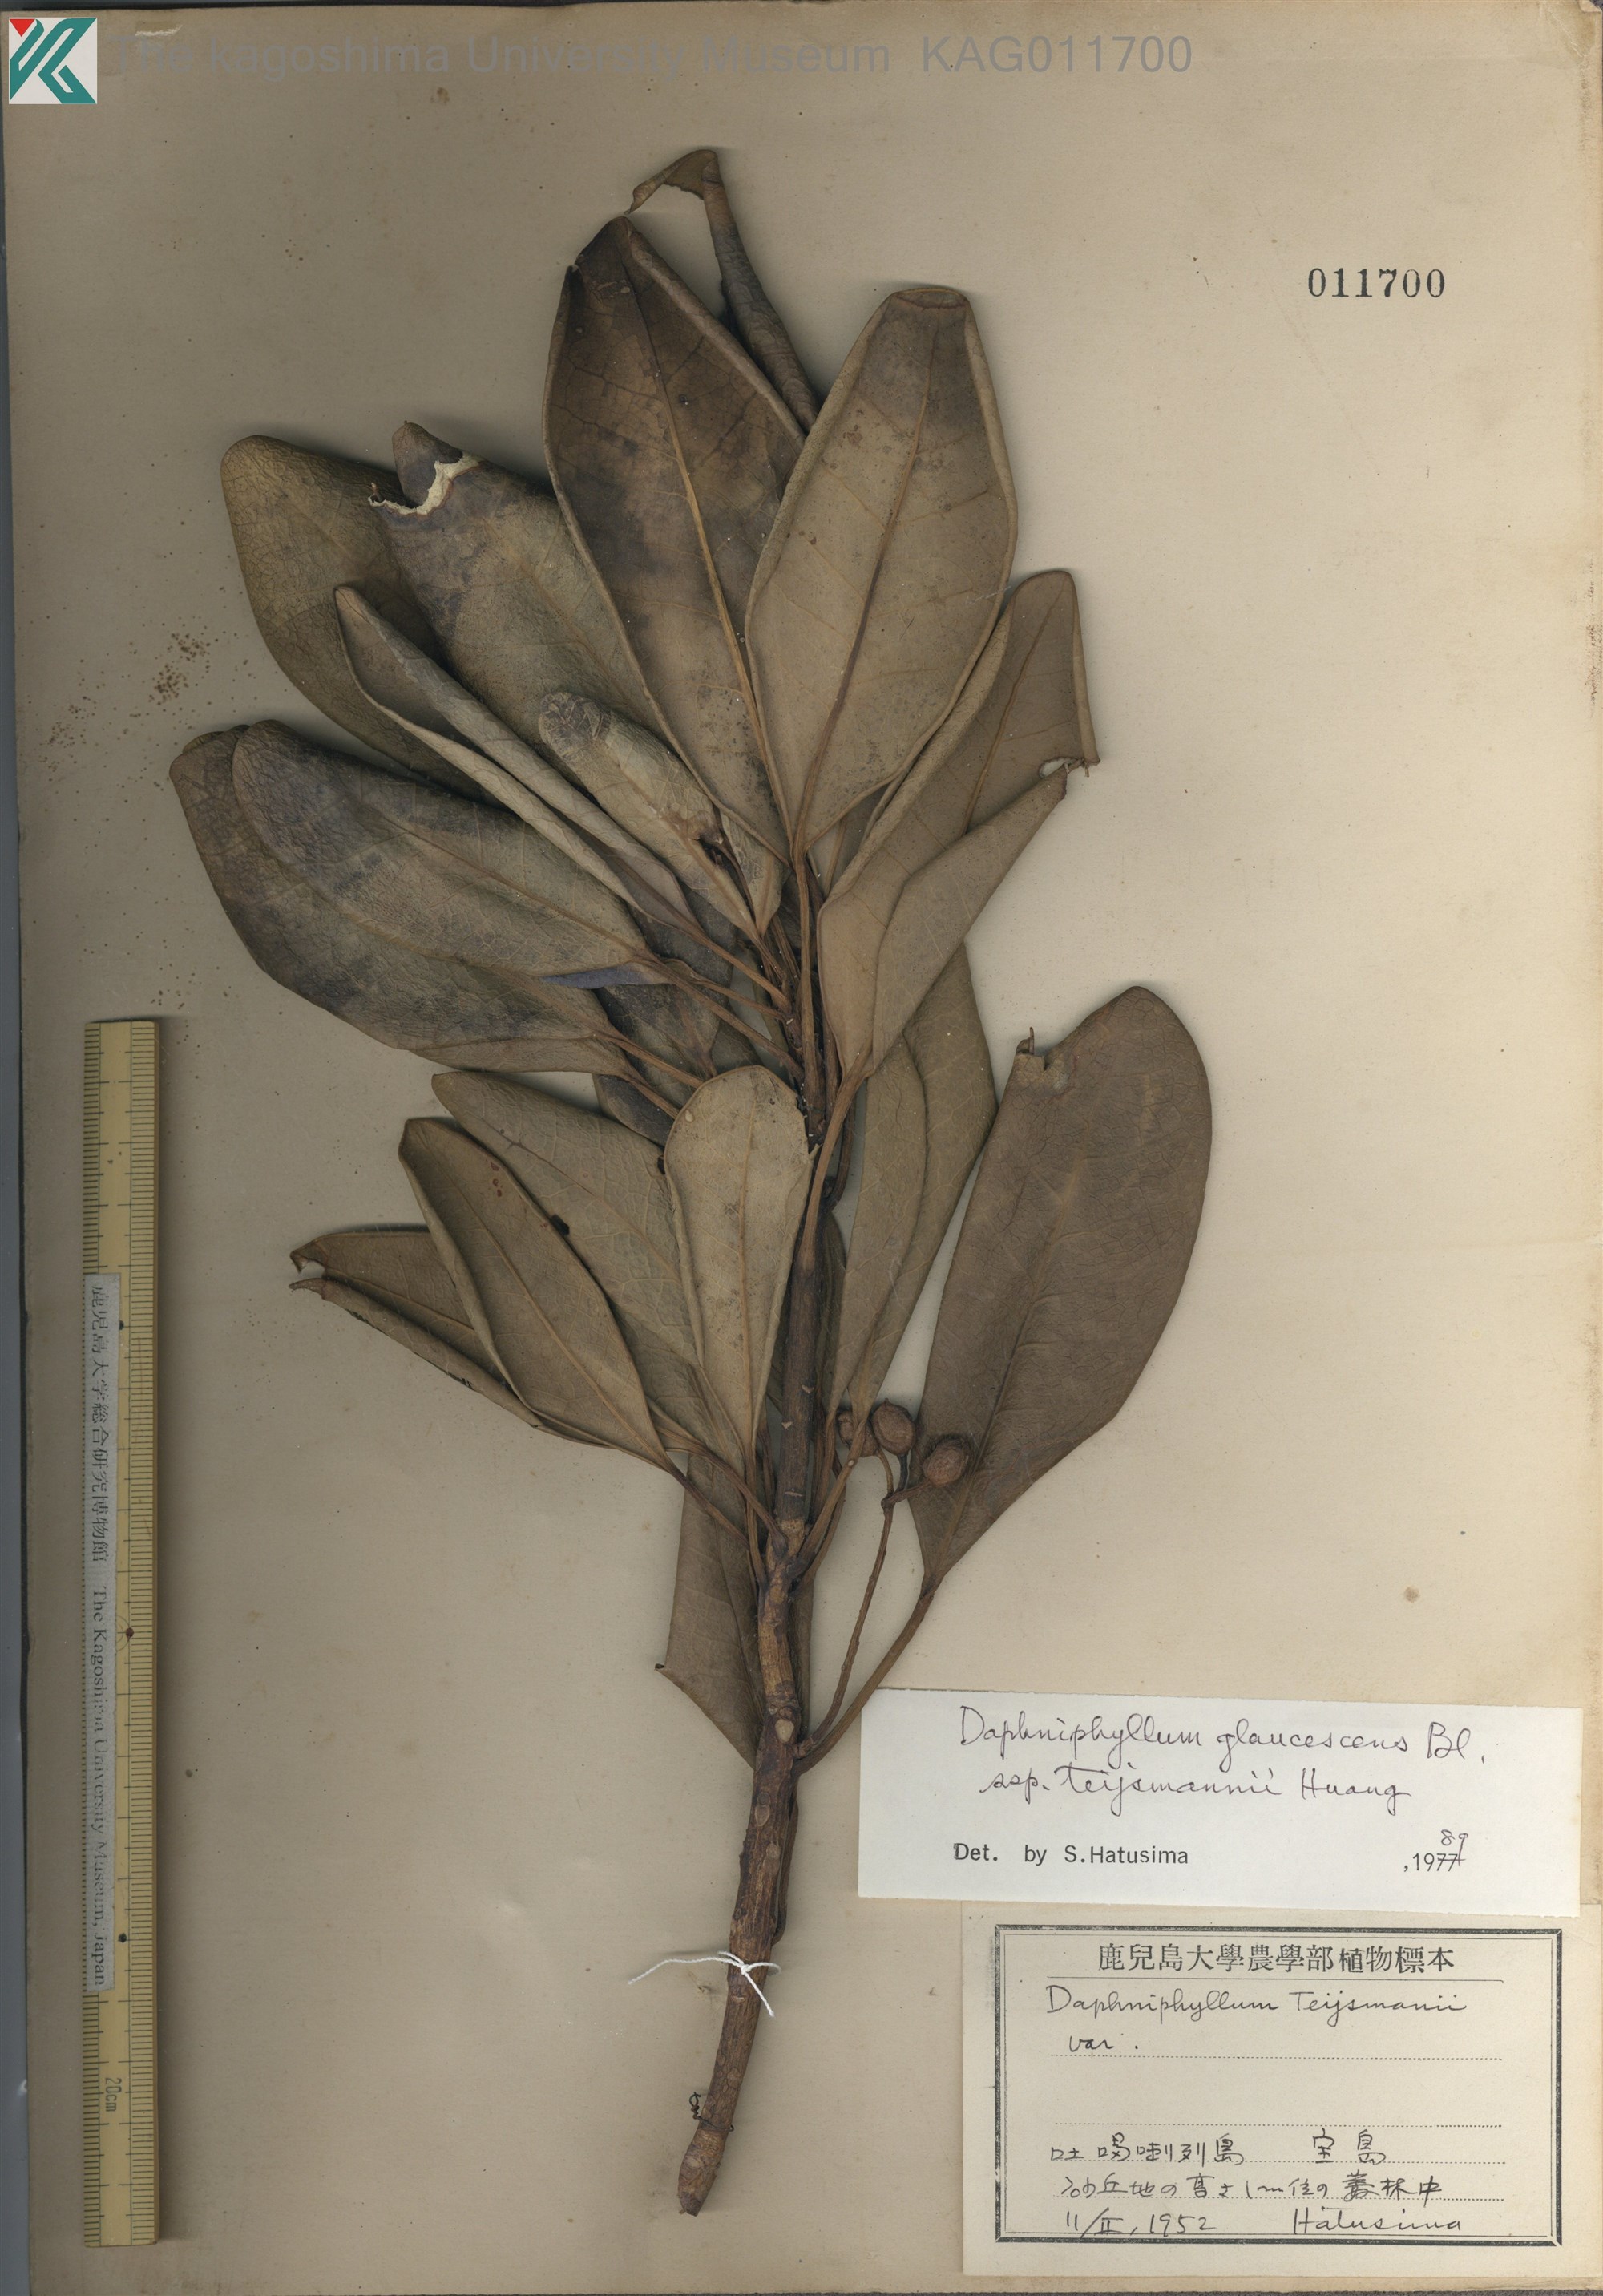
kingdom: Plantae
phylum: Tracheophyta
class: Magnoliopsida
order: Saxifragales
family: Daphniphyllaceae
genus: Daphniphyllum
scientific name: Daphniphyllum teijsmannii
